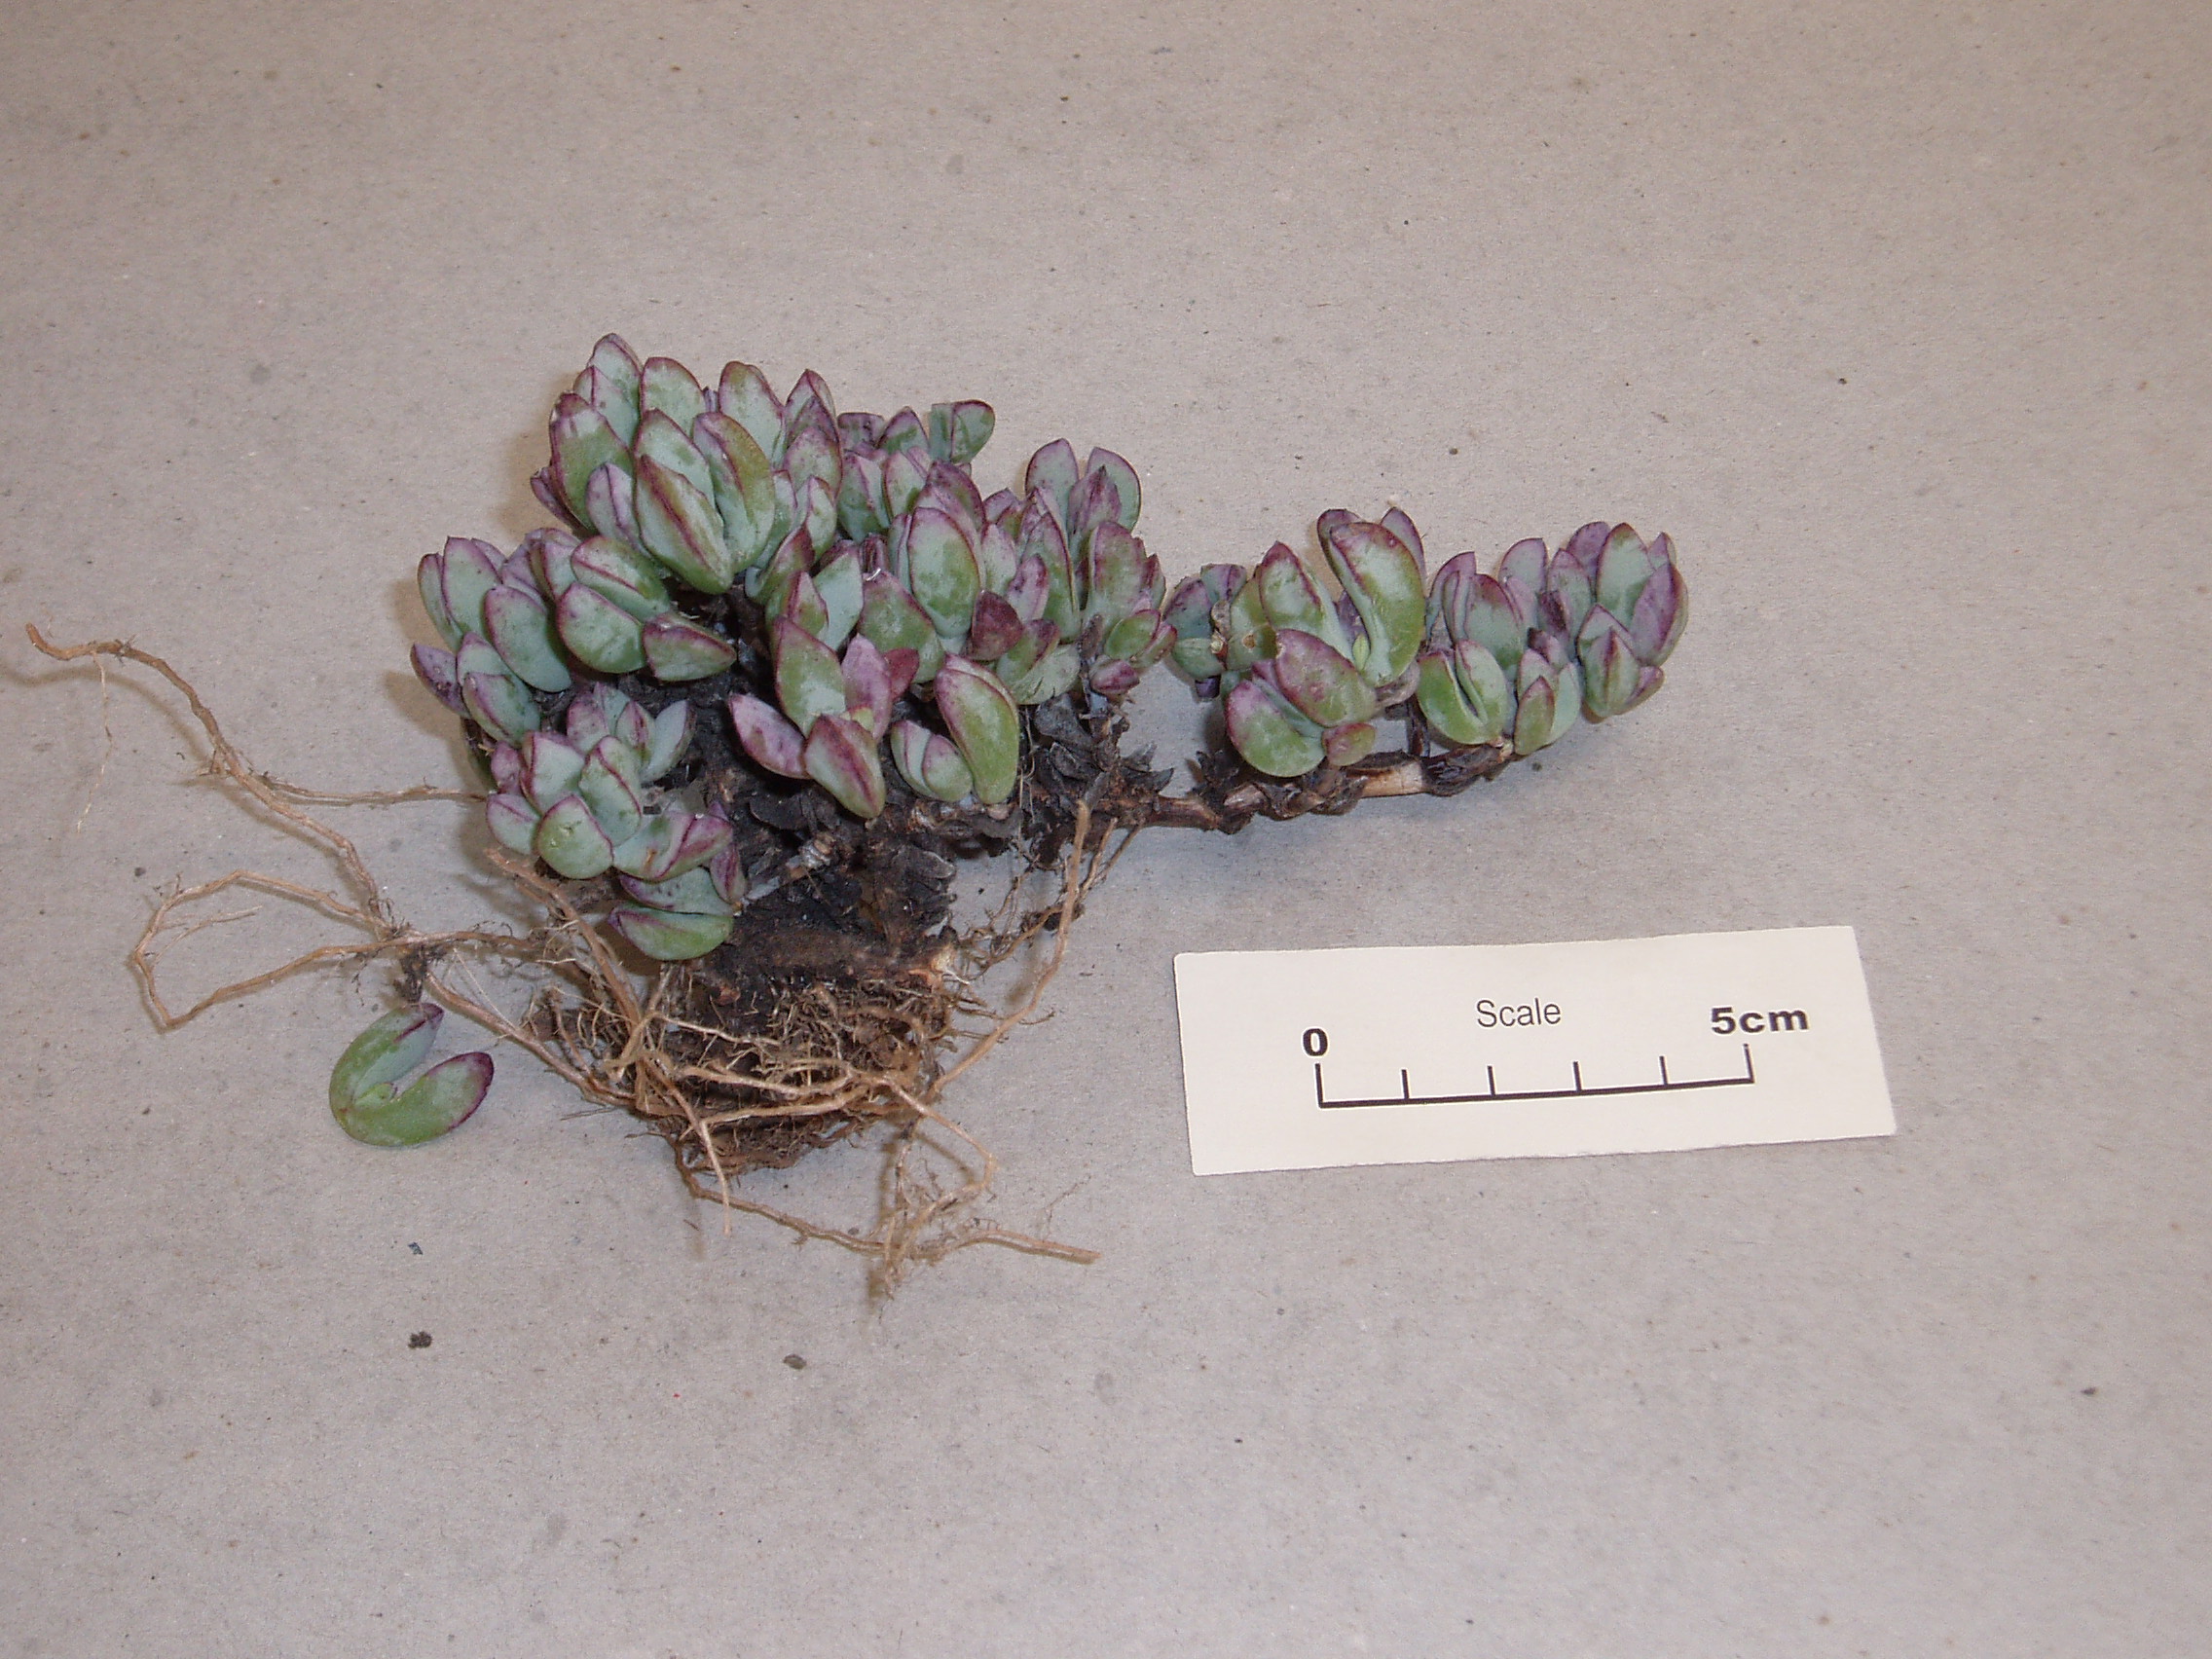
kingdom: Plantae
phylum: Tracheophyta
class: Magnoliopsida
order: Caryophyllales
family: Aizoaceae
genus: Oscularia
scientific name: Oscularia caulescens
